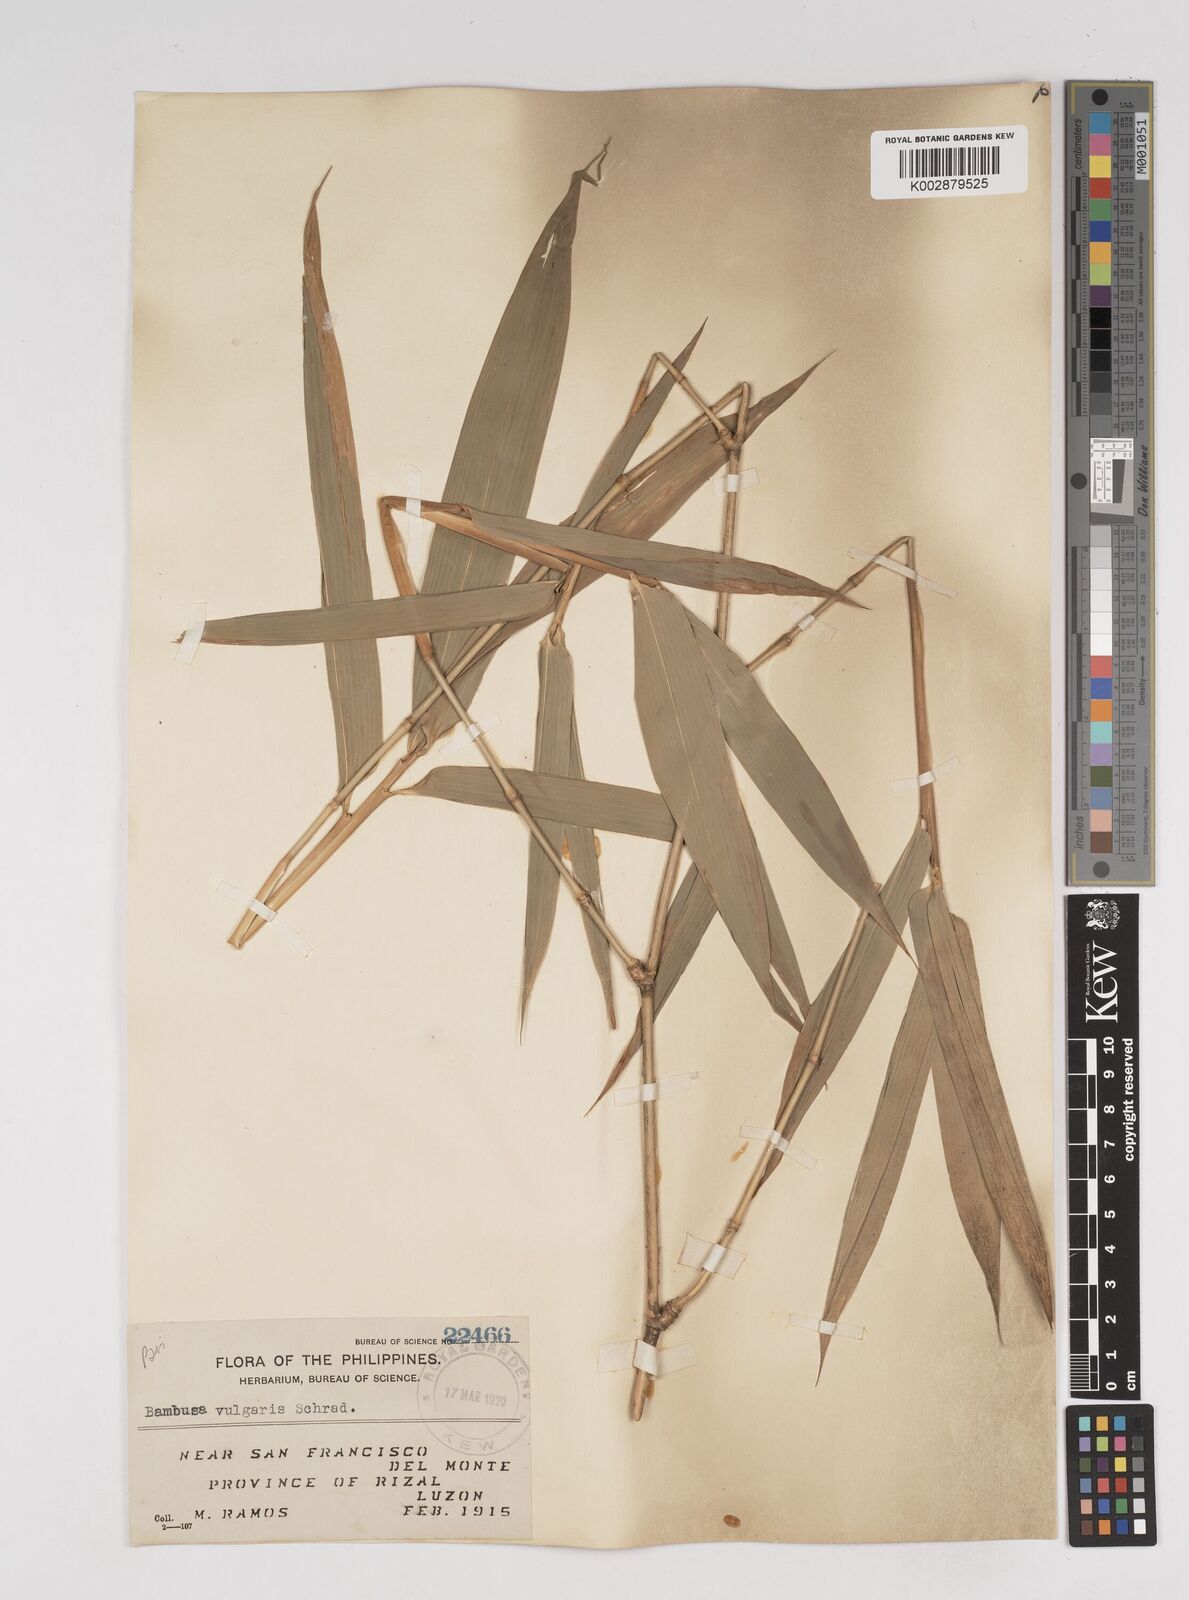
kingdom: Plantae
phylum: Tracheophyta
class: Liliopsida
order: Poales
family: Poaceae
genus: Dendrocalamus
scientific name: Dendrocalamus merrillianus
